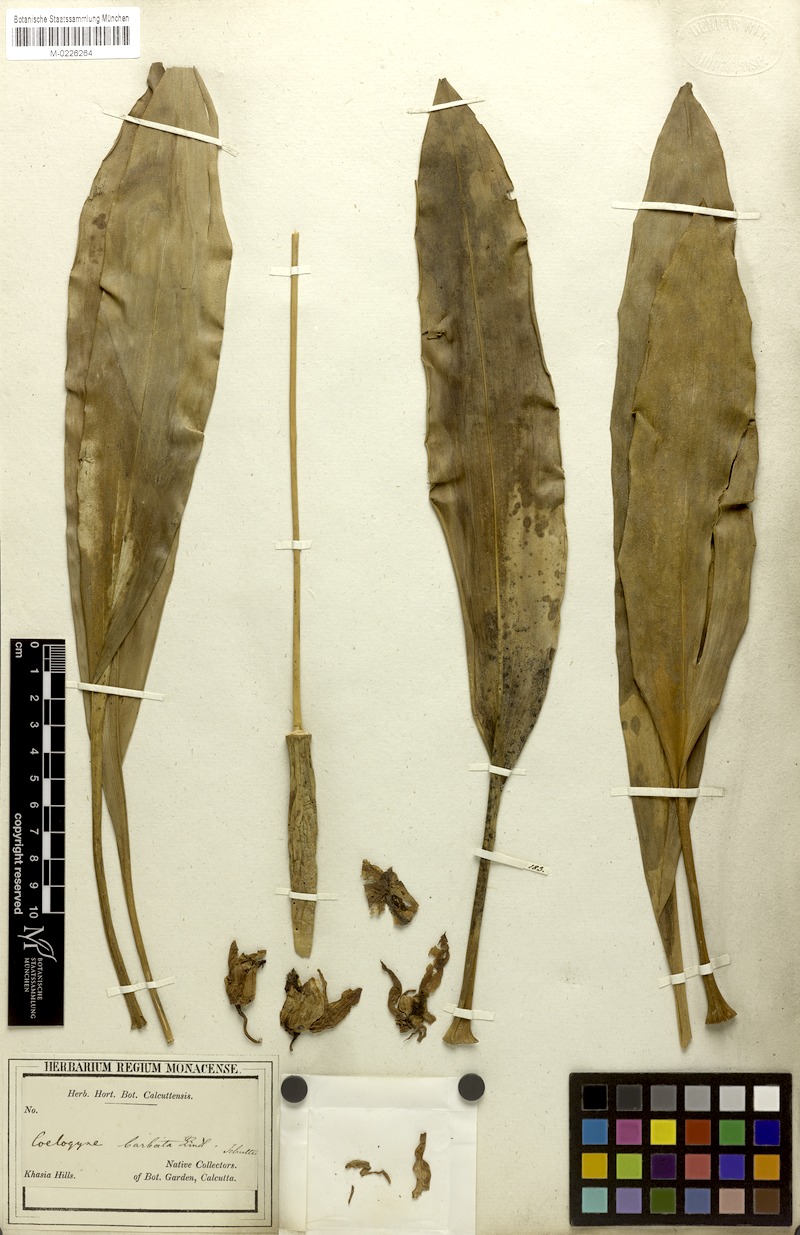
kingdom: Plantae
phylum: Tracheophyta
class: Liliopsida
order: Asparagales
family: Orchidaceae
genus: Coelogyne
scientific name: Coelogyne barbata
